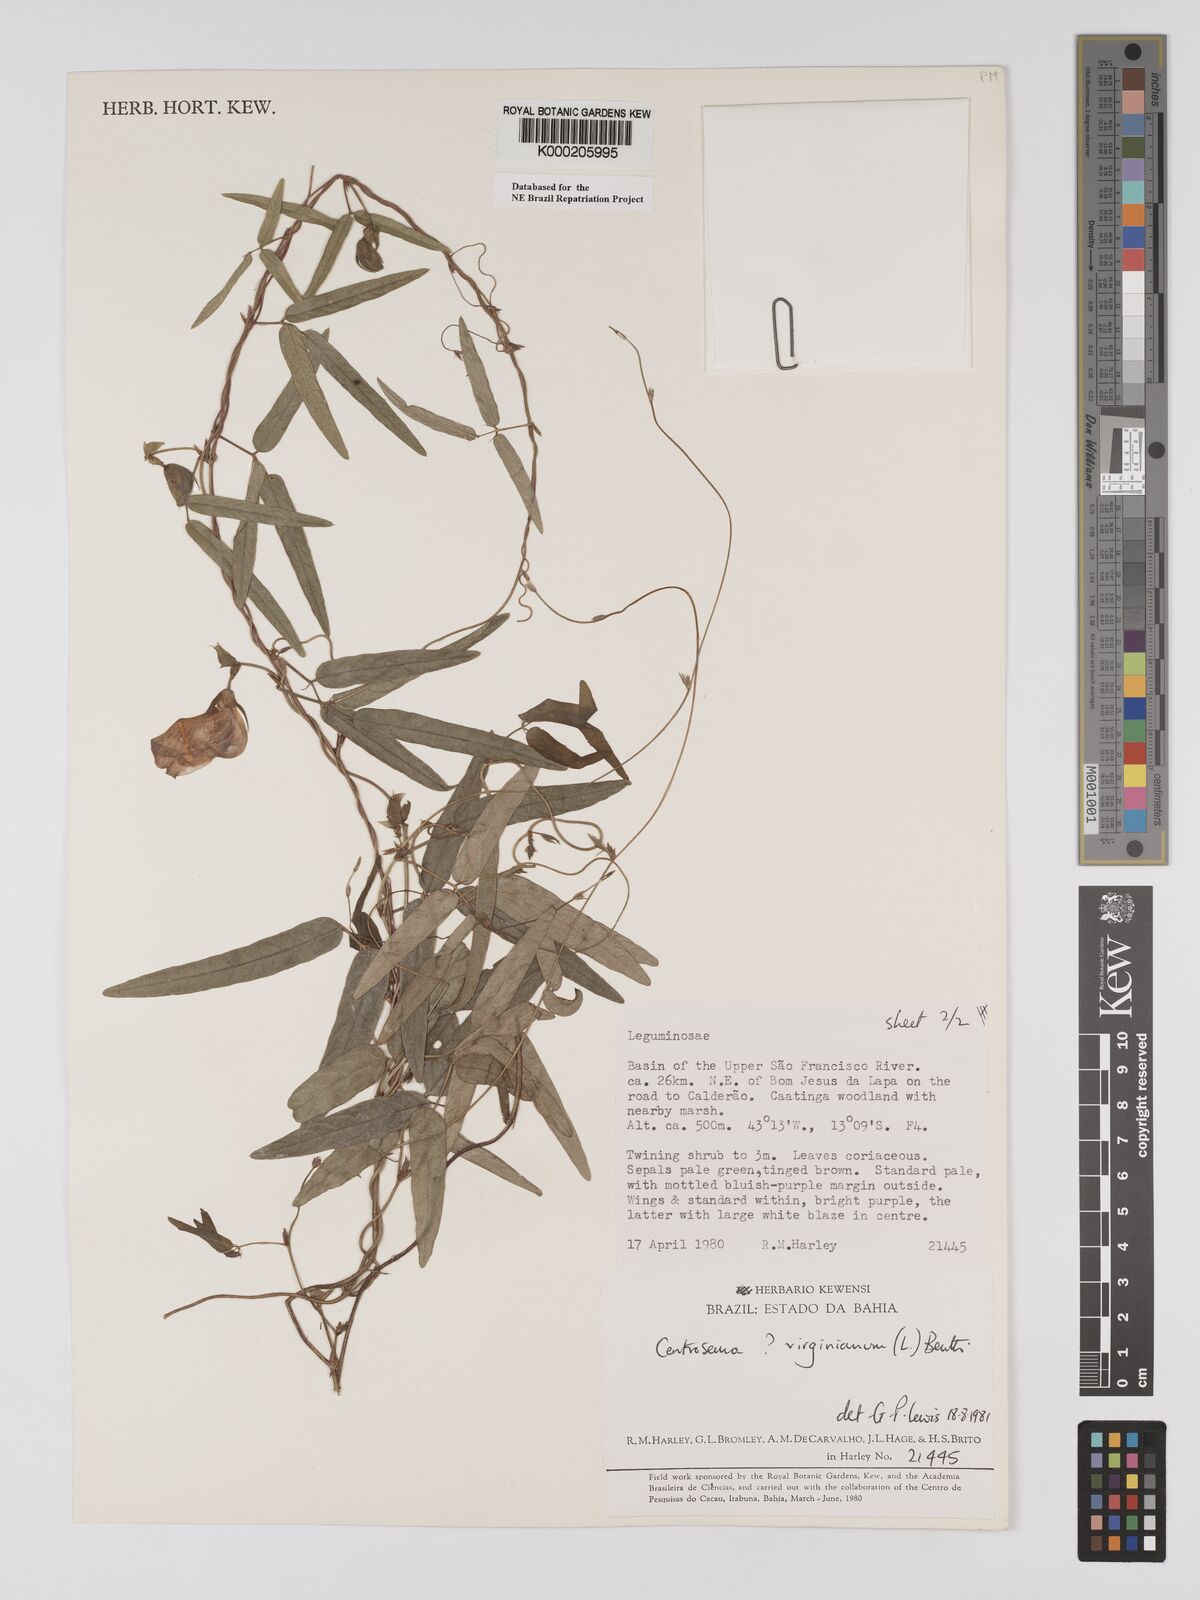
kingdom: Plantae
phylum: Tracheophyta
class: Magnoliopsida
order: Fabales
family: Fabaceae
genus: Centrosema
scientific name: Centrosema virginianum
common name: Butterfly-pea
